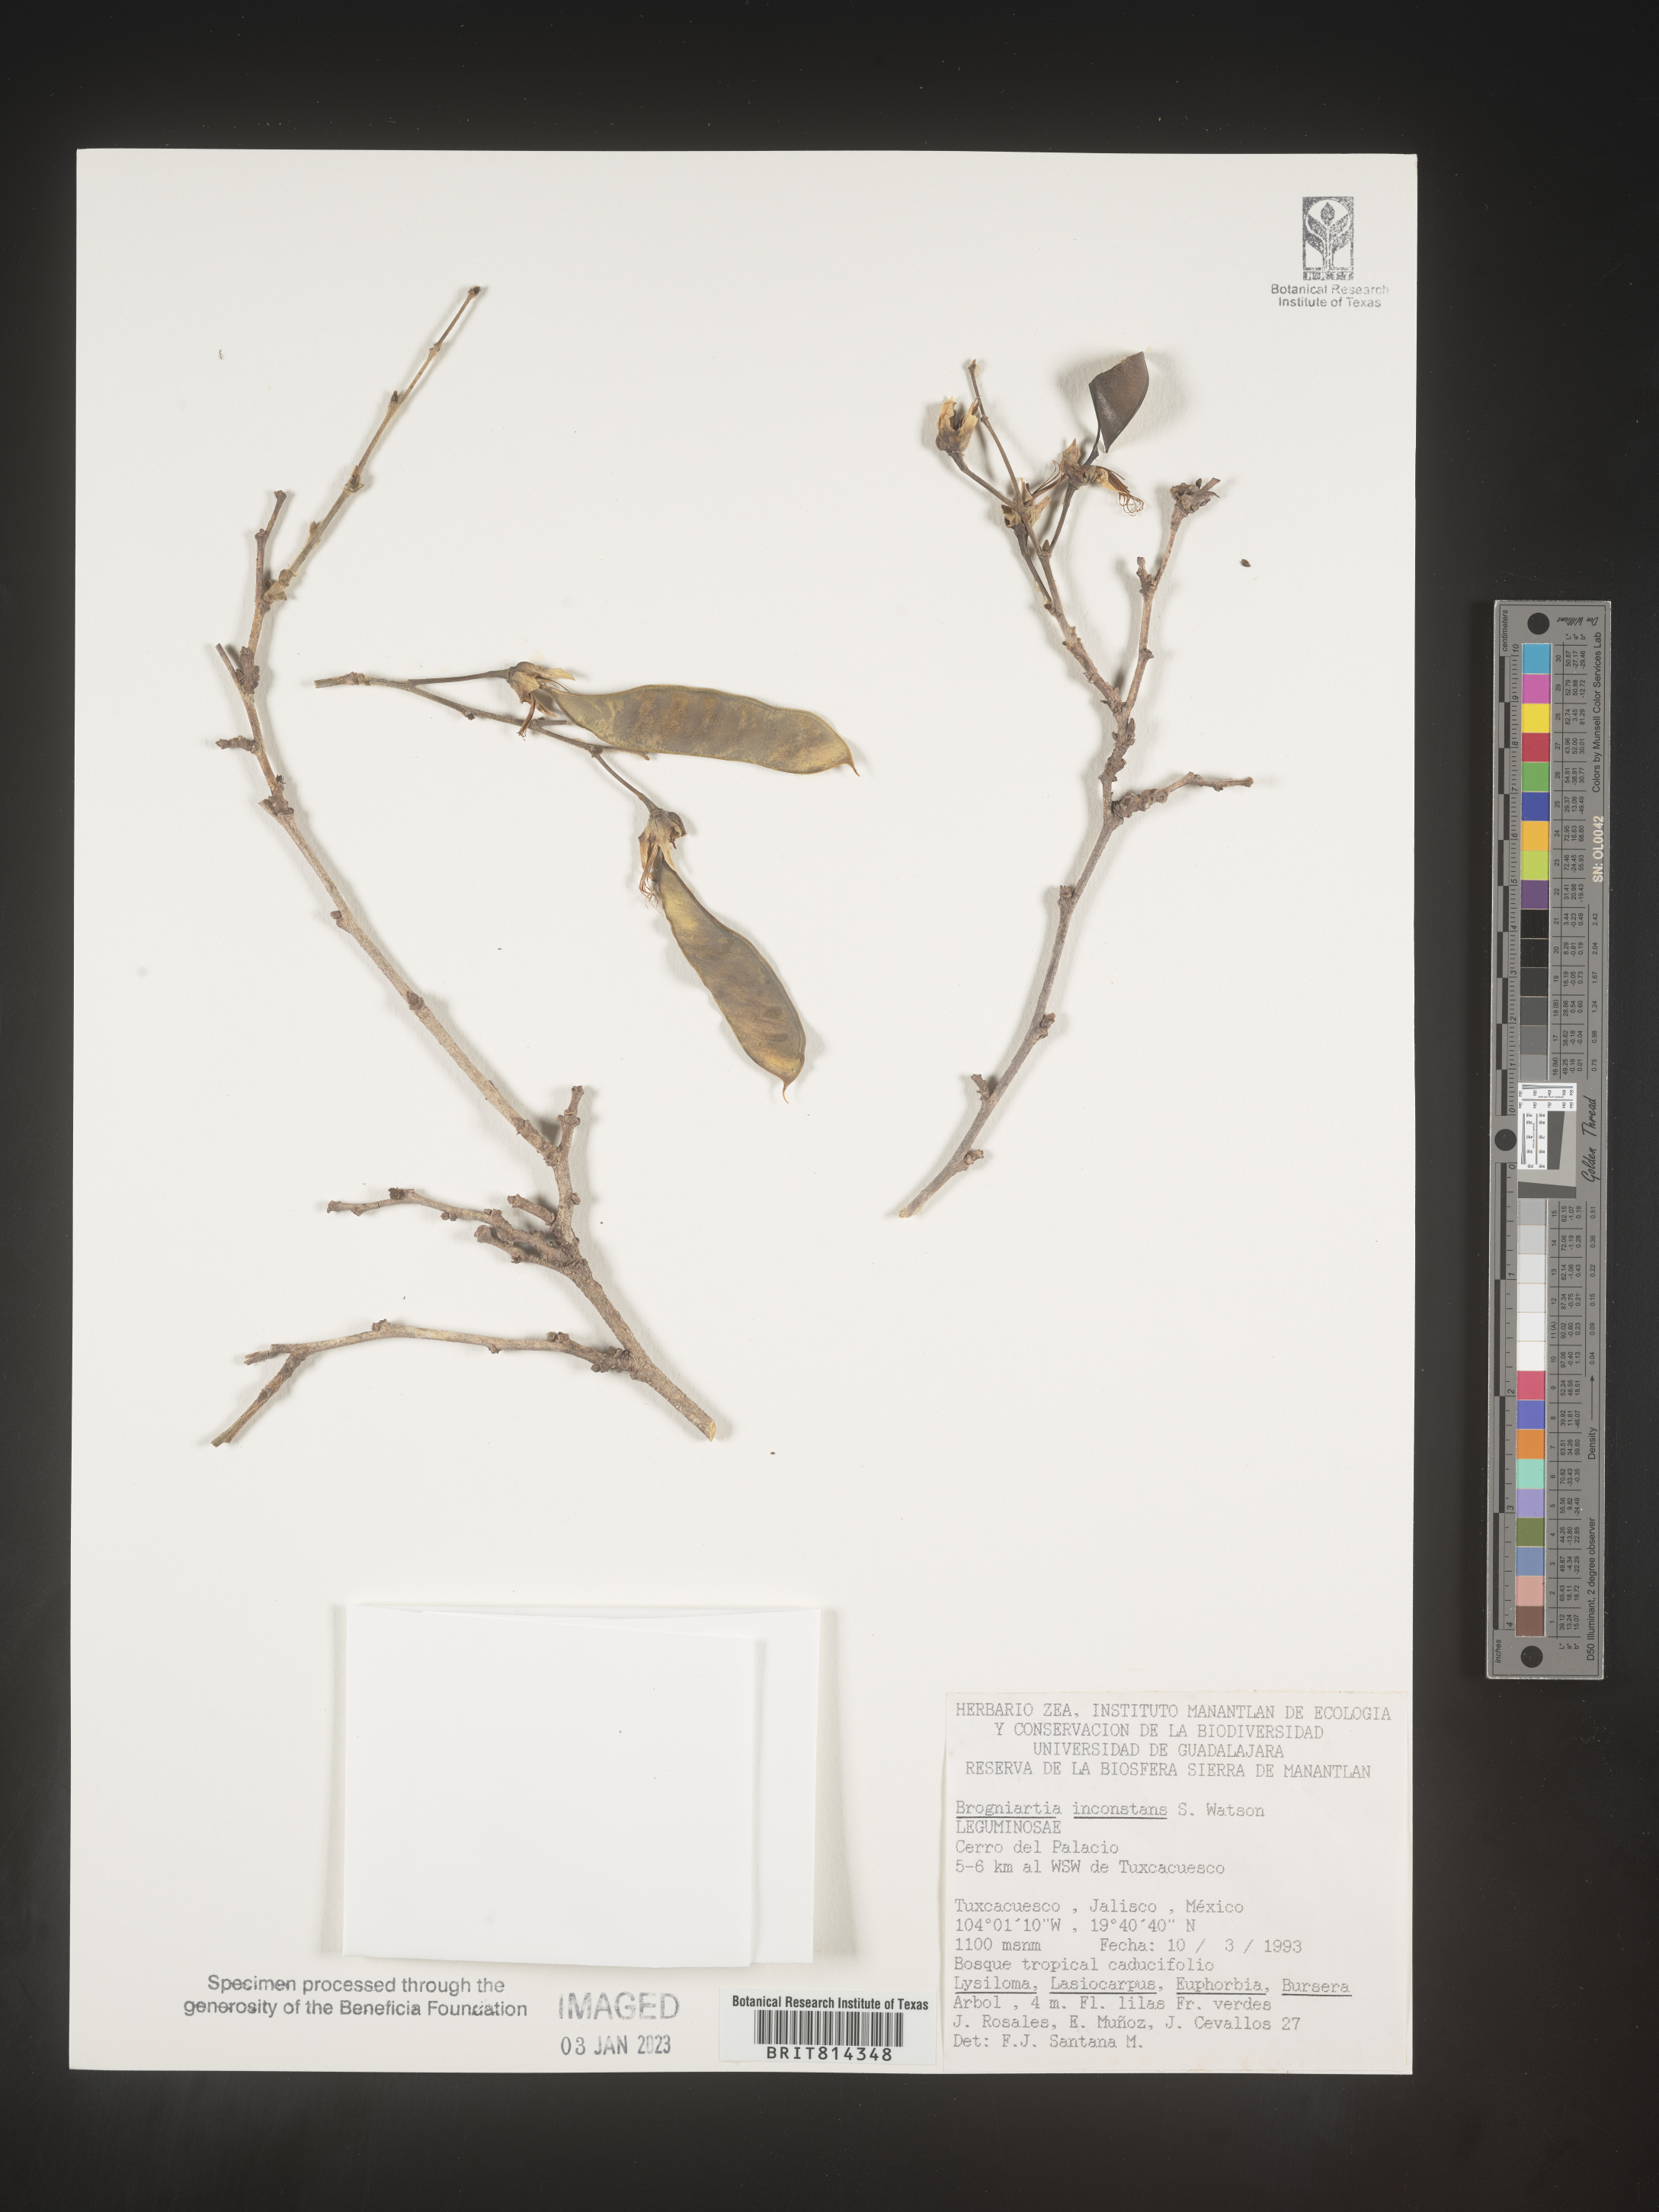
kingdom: Plantae
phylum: Tracheophyta
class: Magnoliopsida
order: Fabales
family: Fabaceae
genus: Brongniartia
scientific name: Brongniartia
